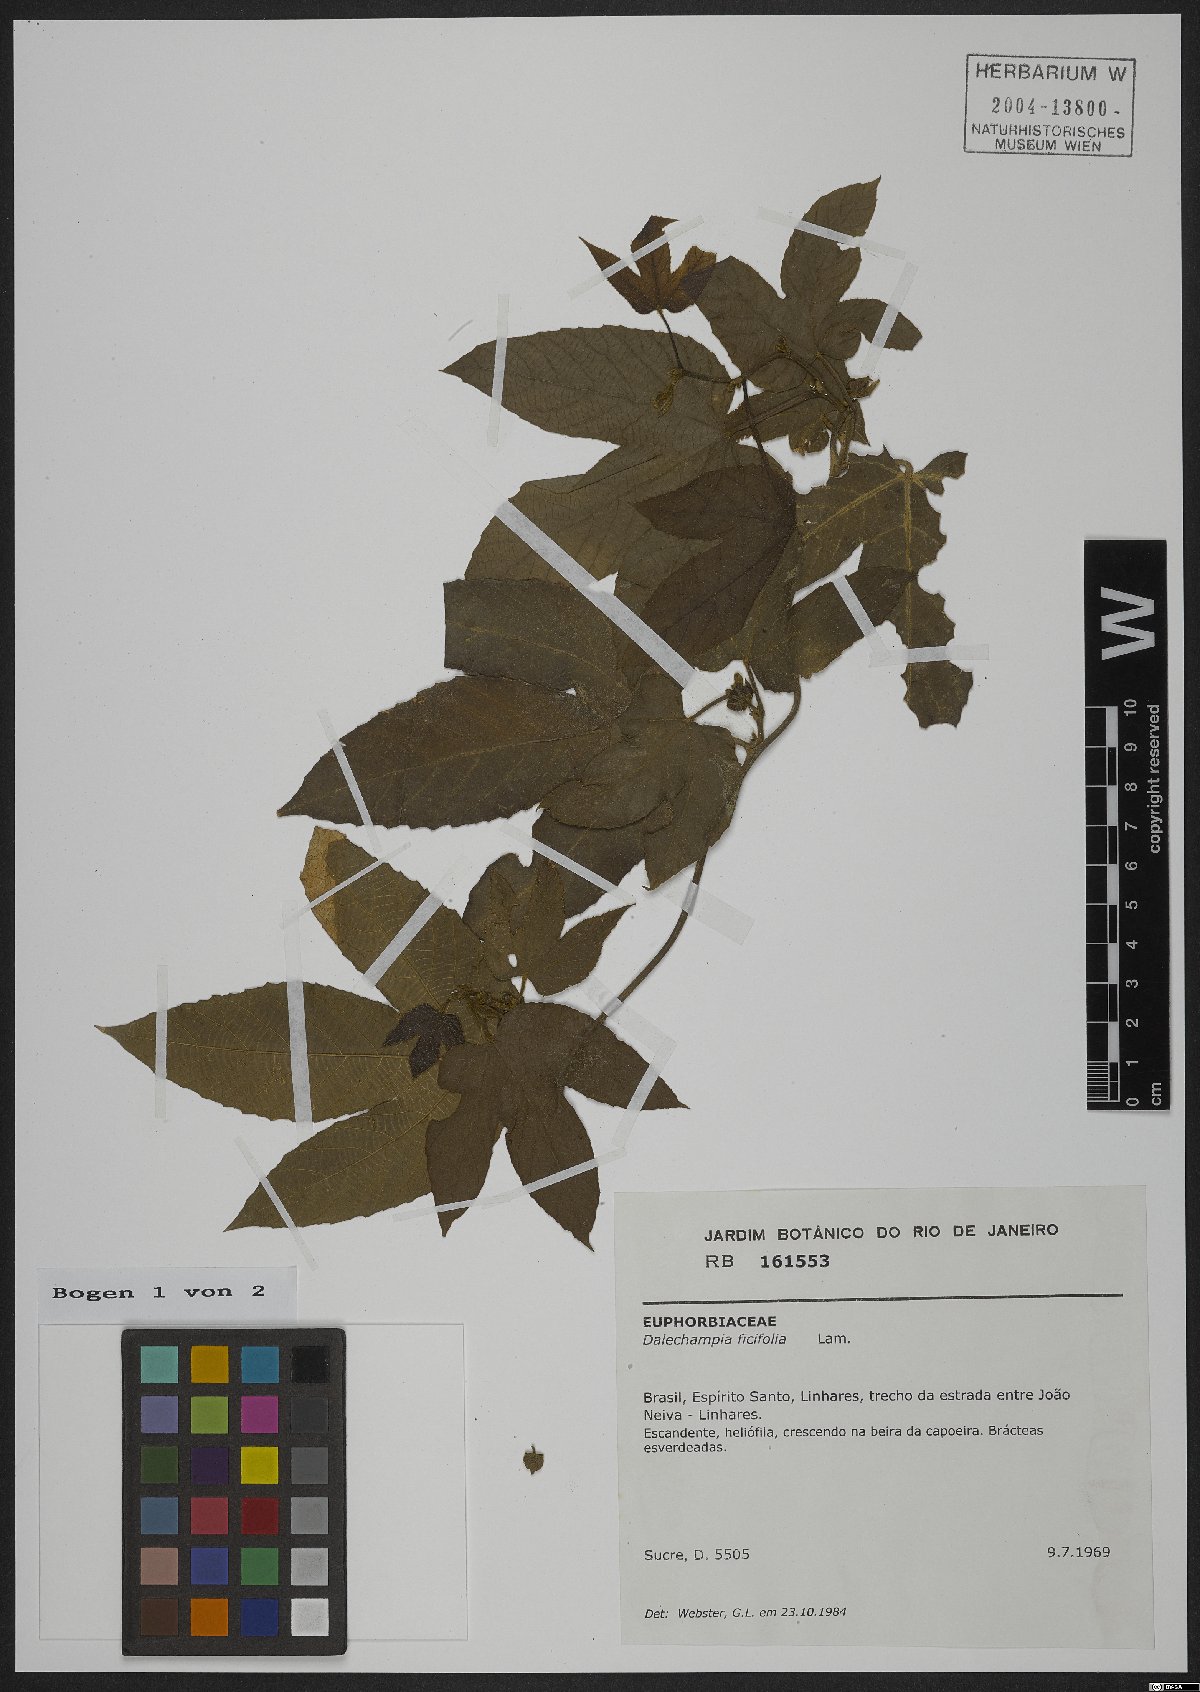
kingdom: Plantae
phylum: Tracheophyta
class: Magnoliopsida
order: Malpighiales
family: Euphorbiaceae
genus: Dalechampia
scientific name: Dalechampia ficifolia
